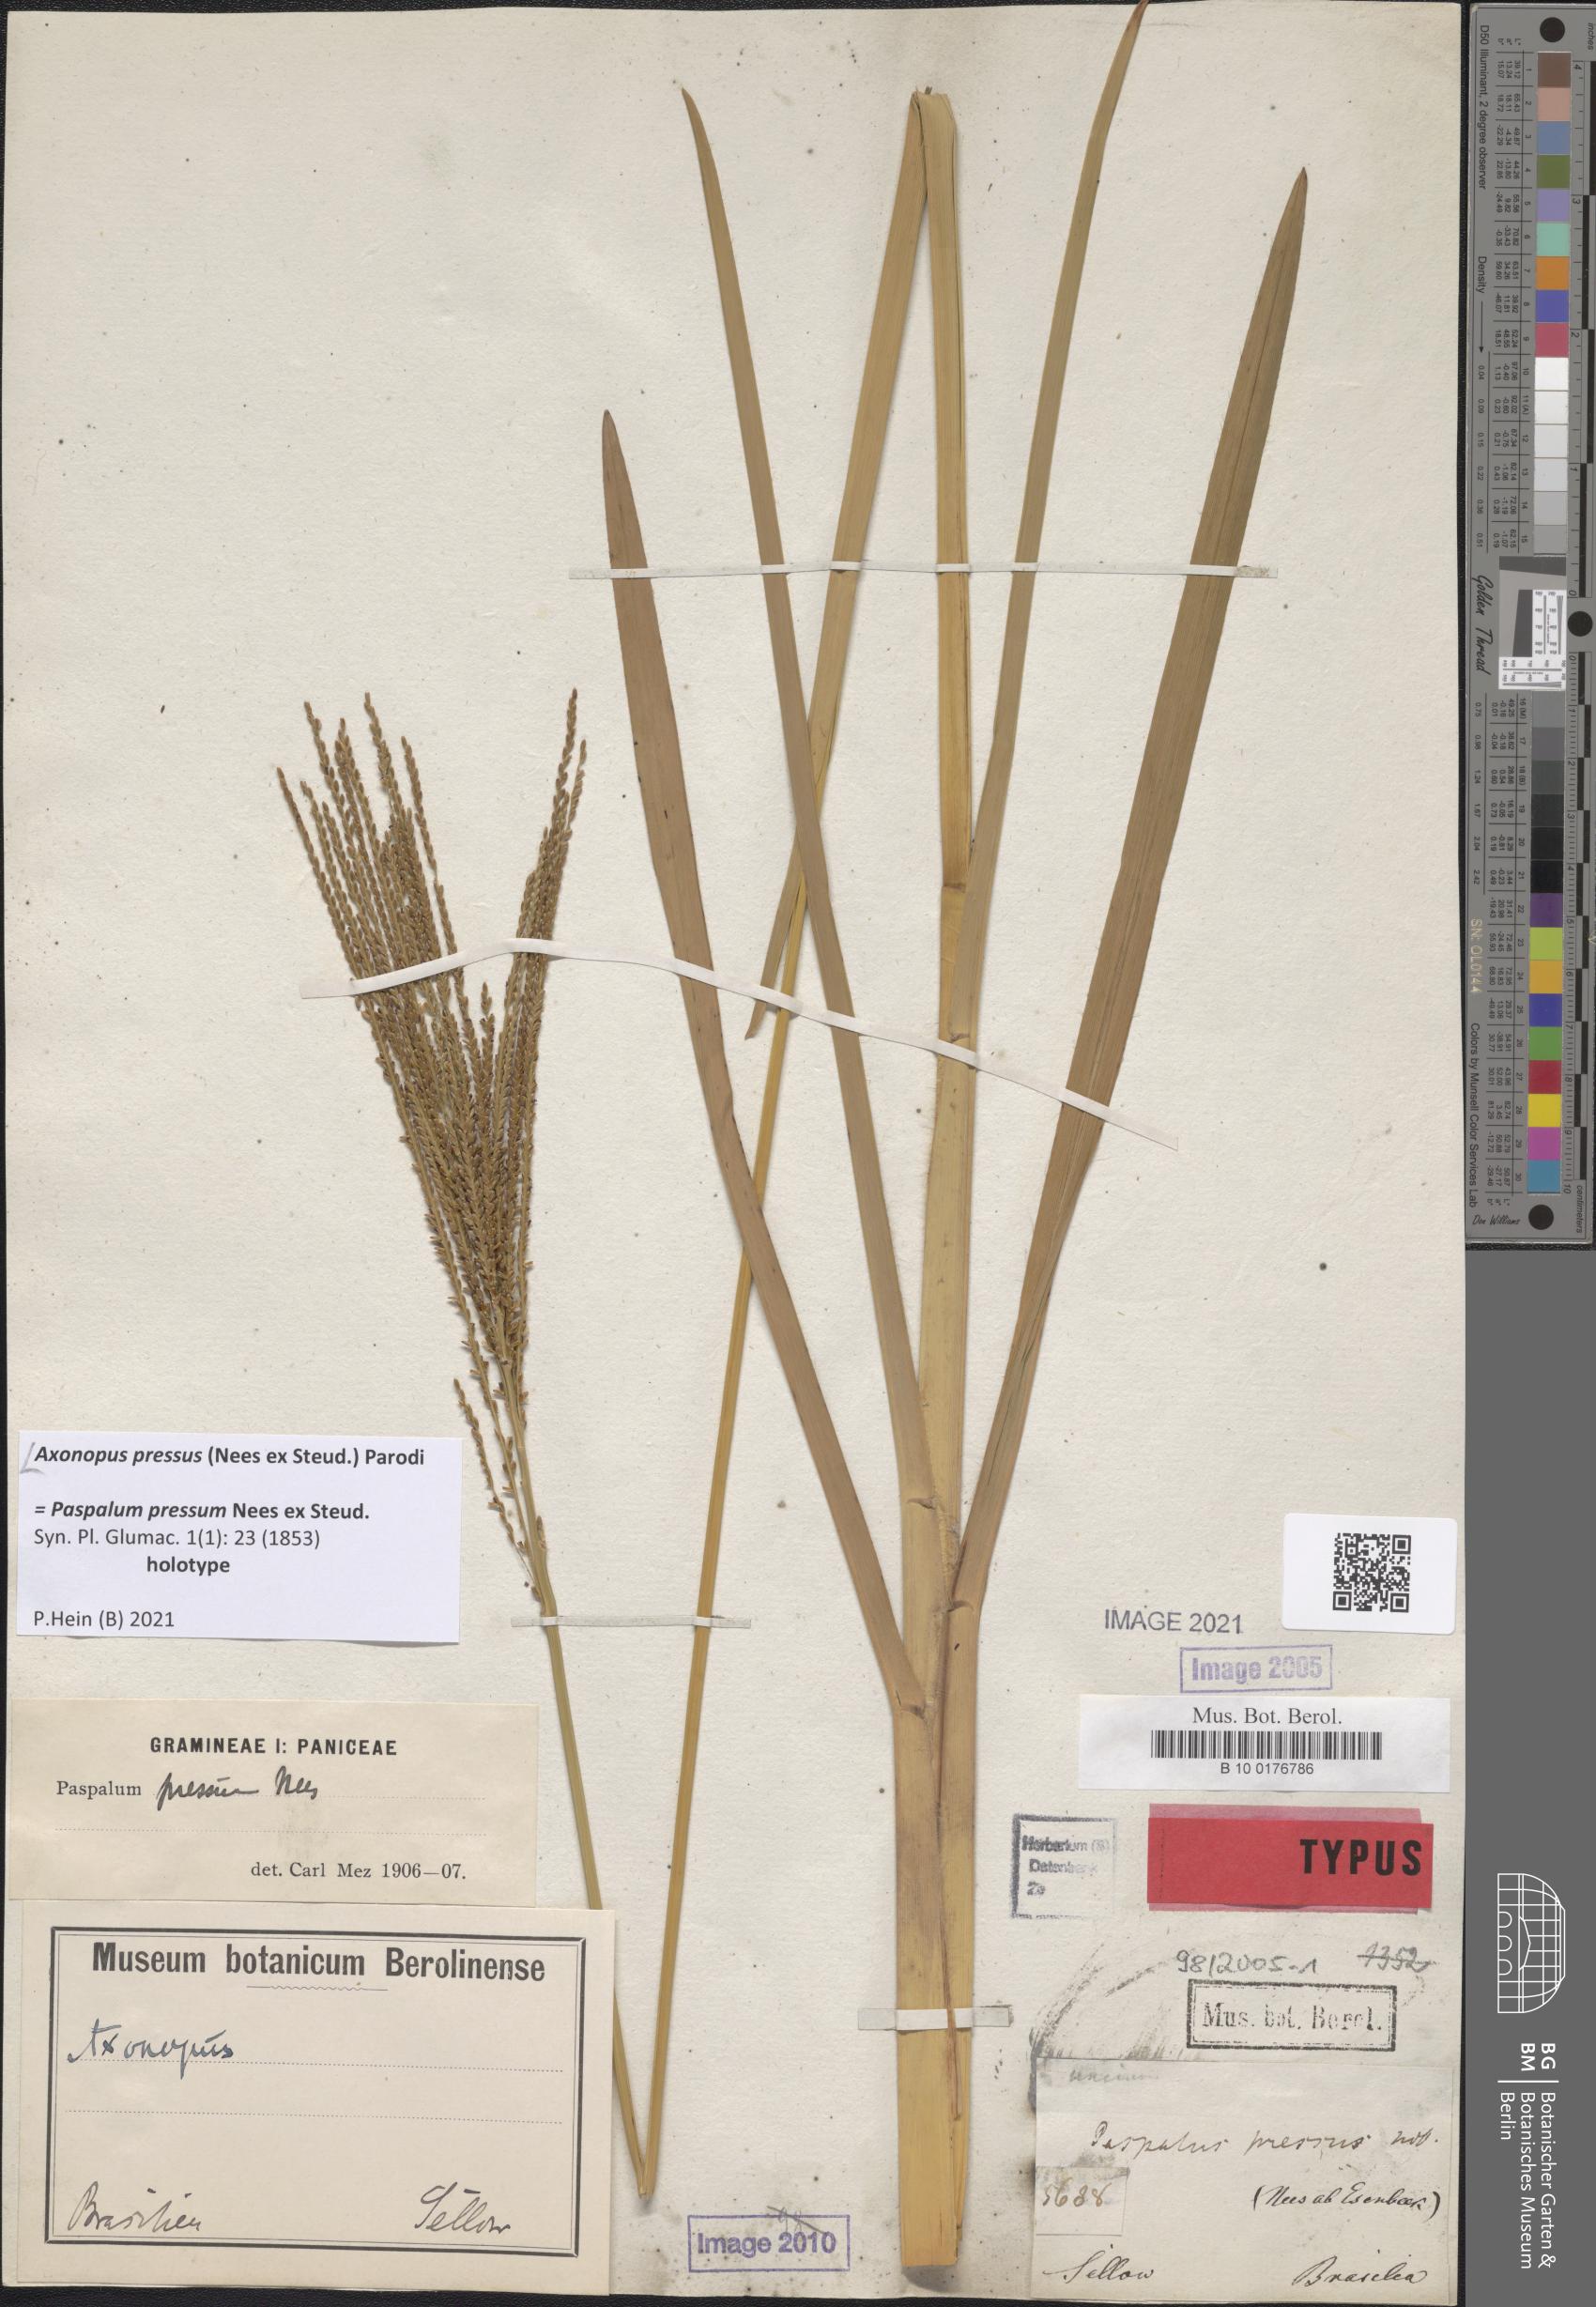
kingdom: Plantae
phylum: Tracheophyta
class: Liliopsida
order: Poales
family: Poaceae
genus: Axonopus
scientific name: Axonopus pressus
